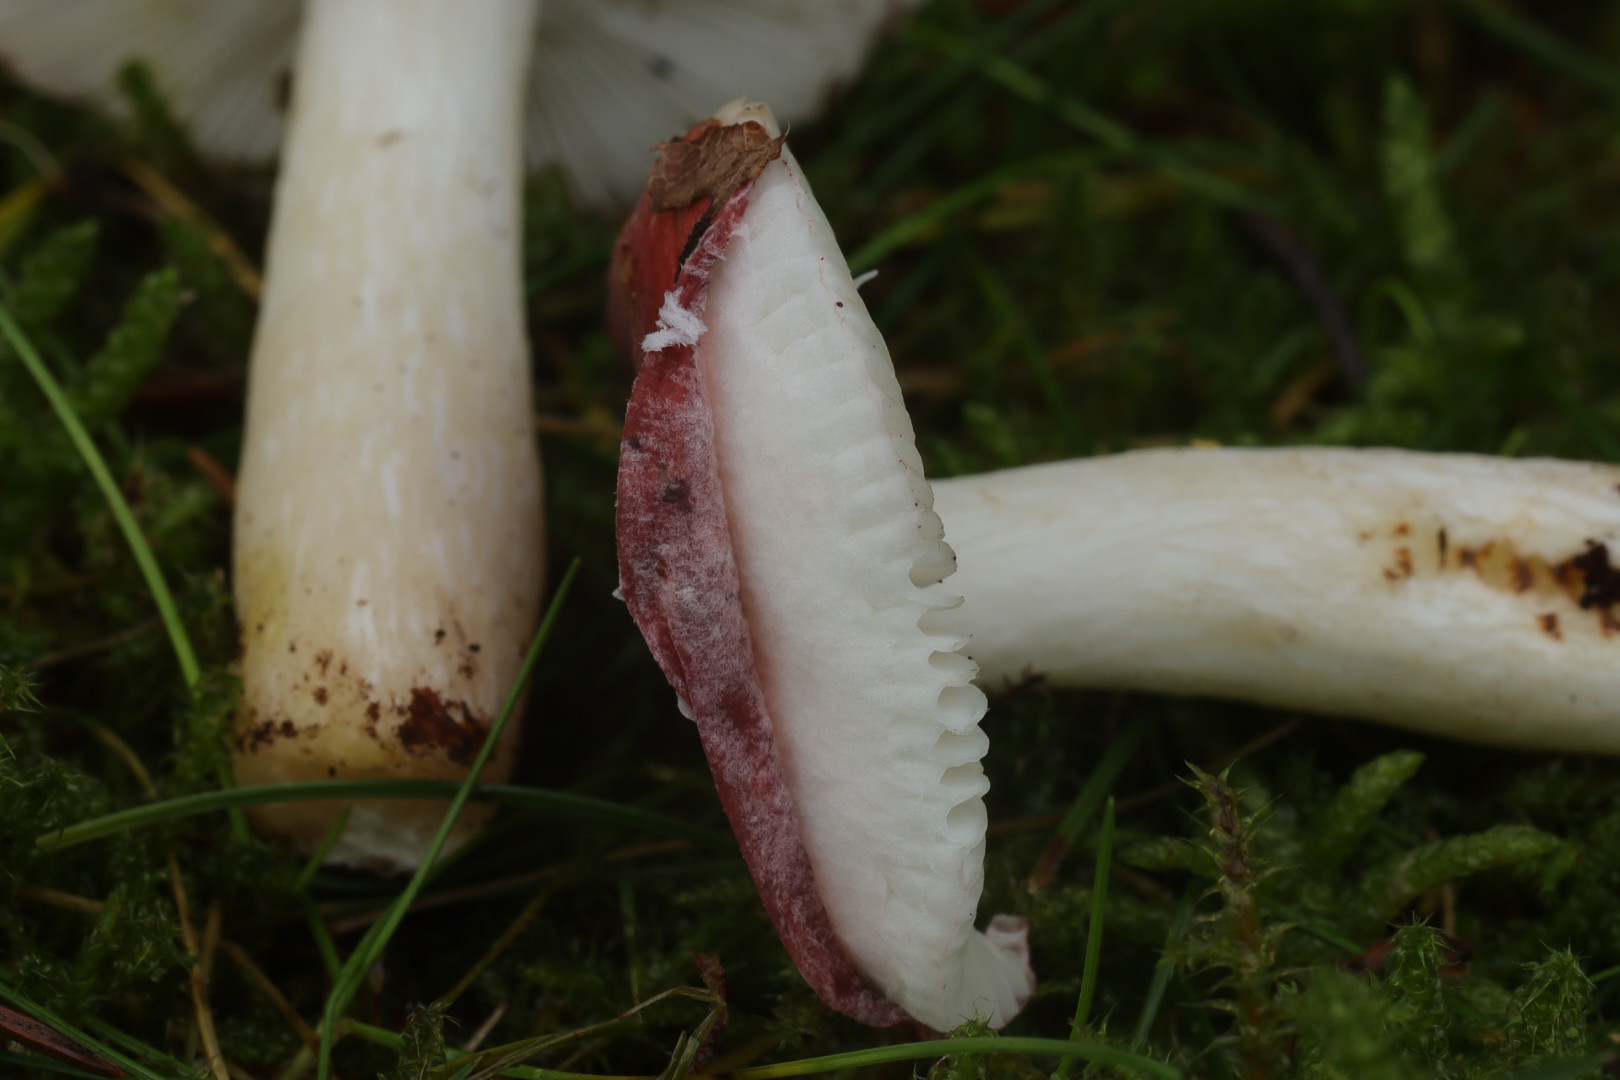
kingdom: Fungi
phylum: Basidiomycota
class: Agaricomycetes
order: Russulales
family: Russulaceae
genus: Russula
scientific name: Russula fragilis
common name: Fragile brittlegill
